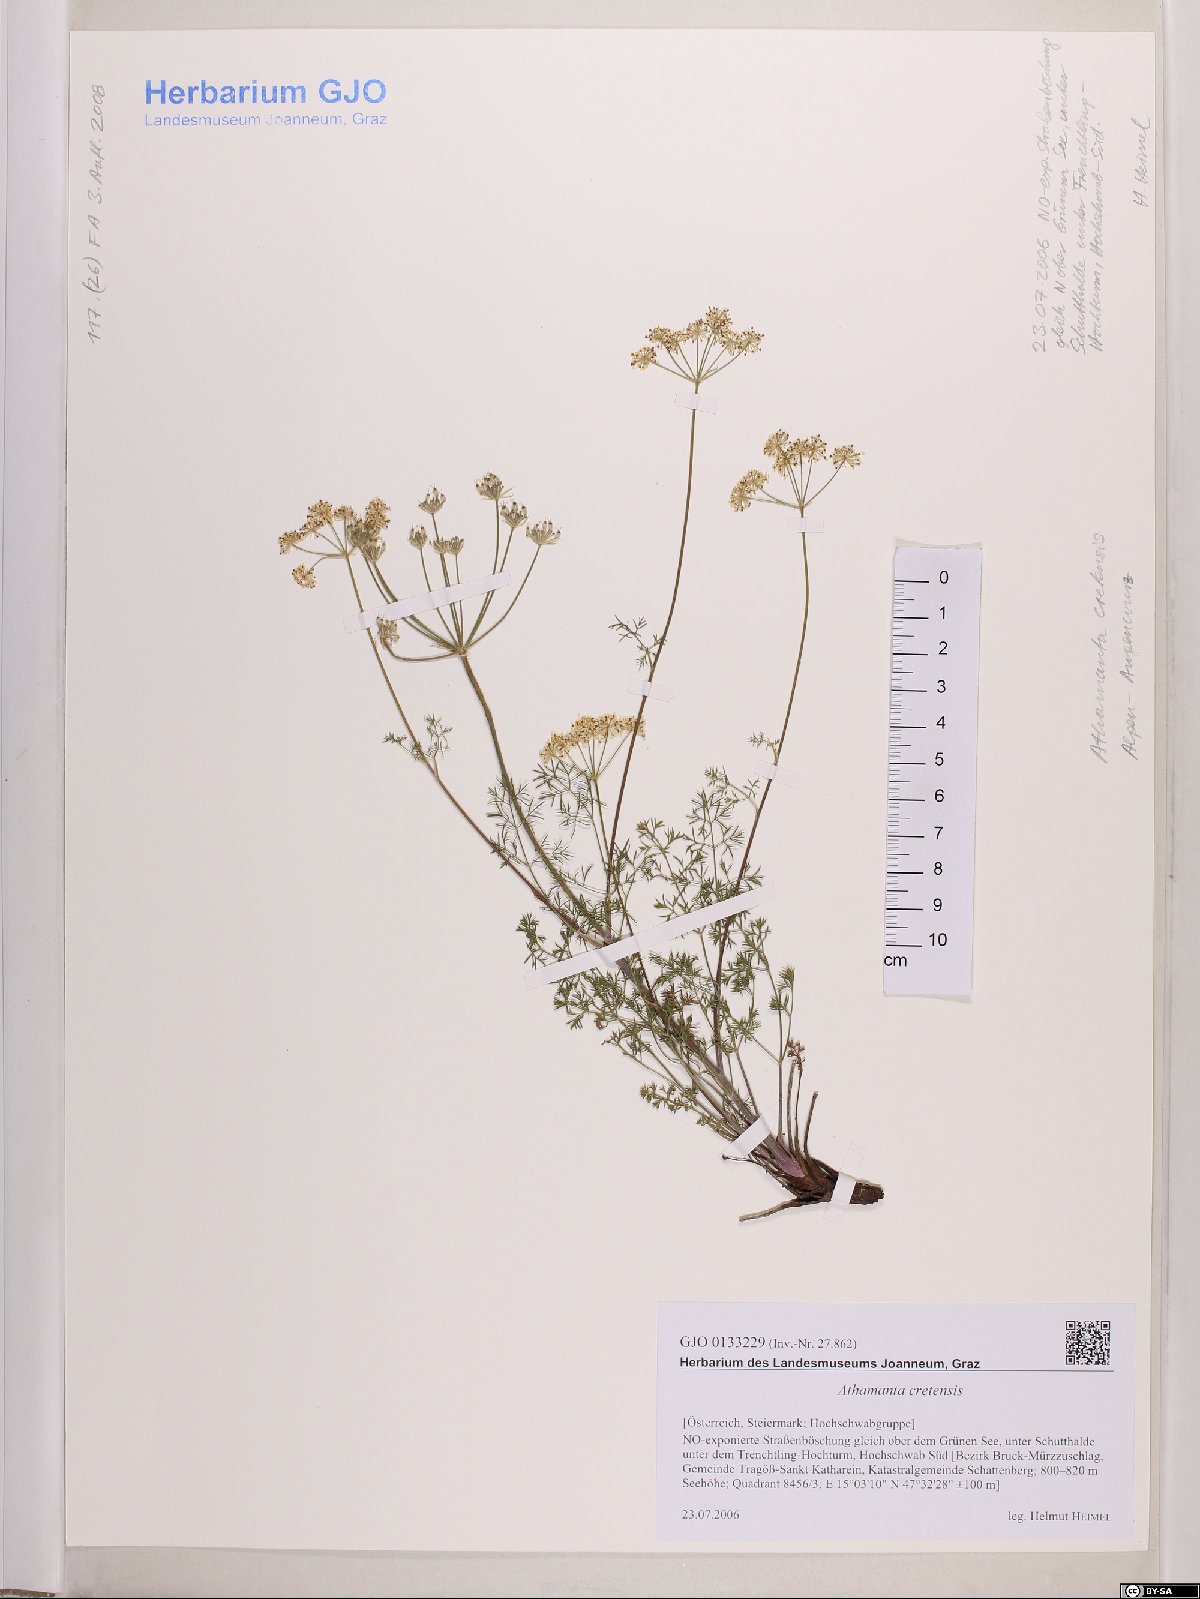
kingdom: Plantae
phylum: Tracheophyta
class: Magnoliopsida
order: Apiales
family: Apiaceae
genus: Athamanta
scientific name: Athamanta cretensis
